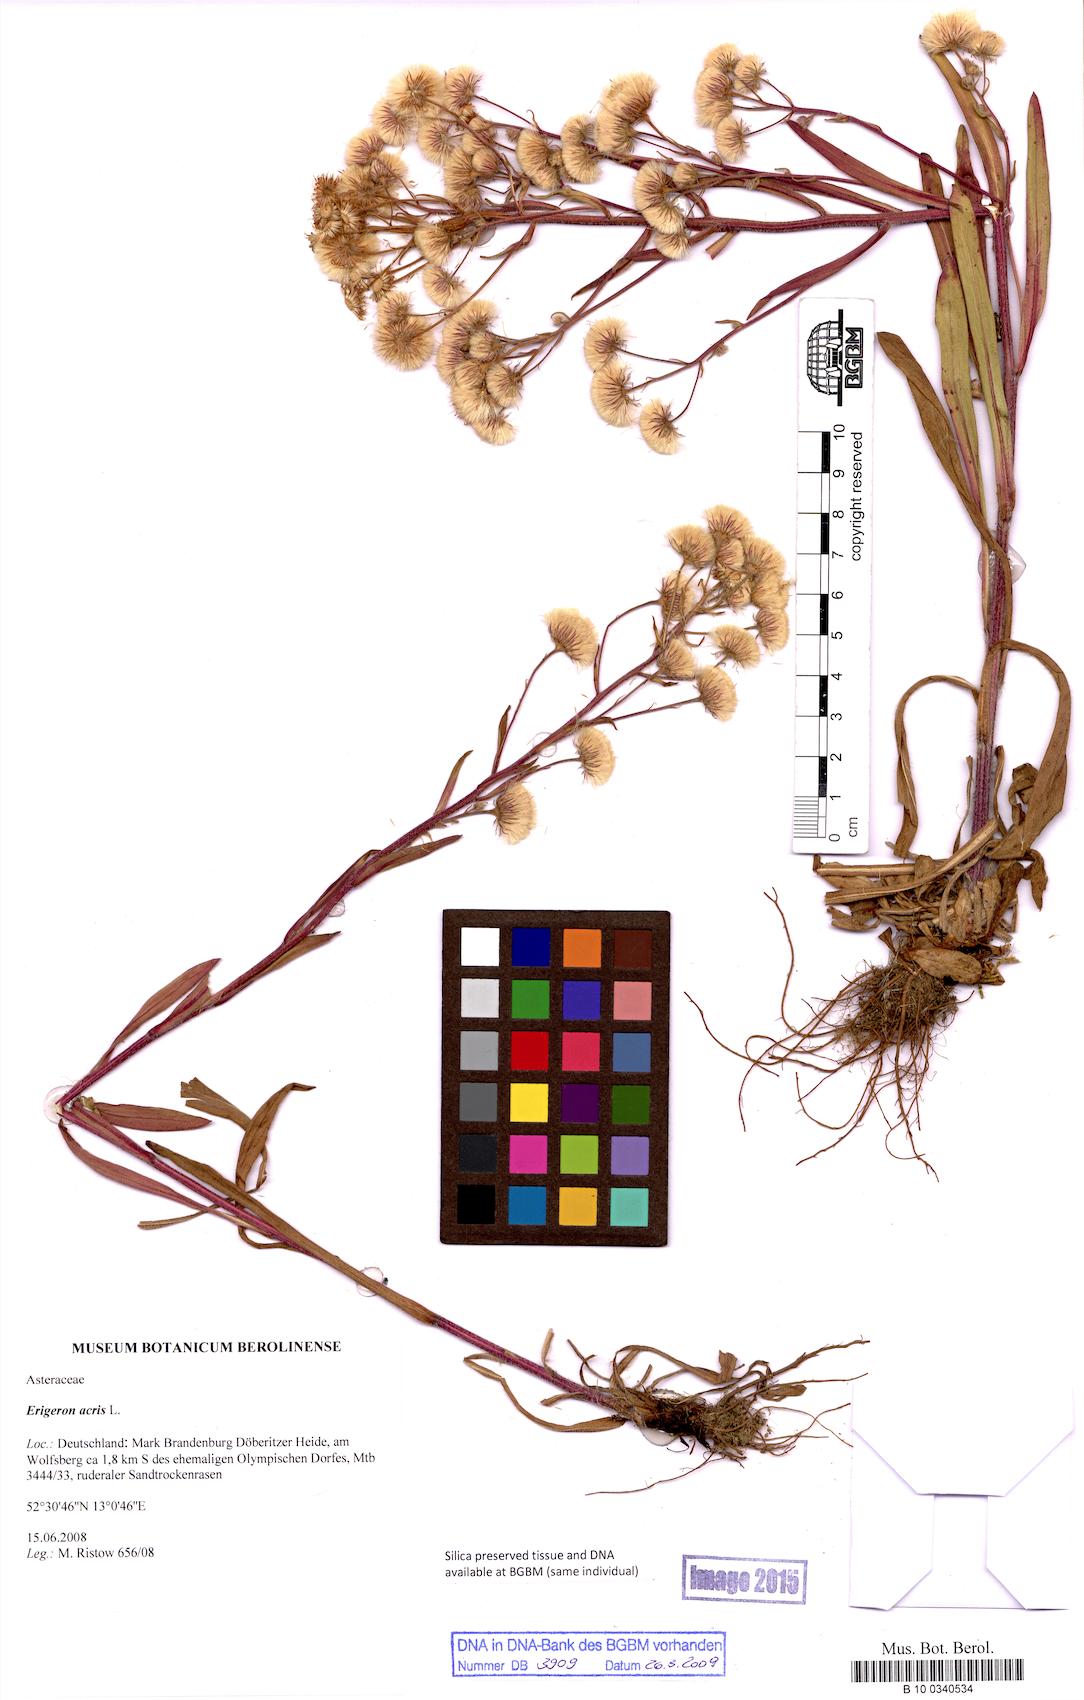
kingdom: Plantae
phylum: Tracheophyta
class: Magnoliopsida
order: Asterales
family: Asteraceae
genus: Erigeron
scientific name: Erigeron acris
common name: Blue fleabane
